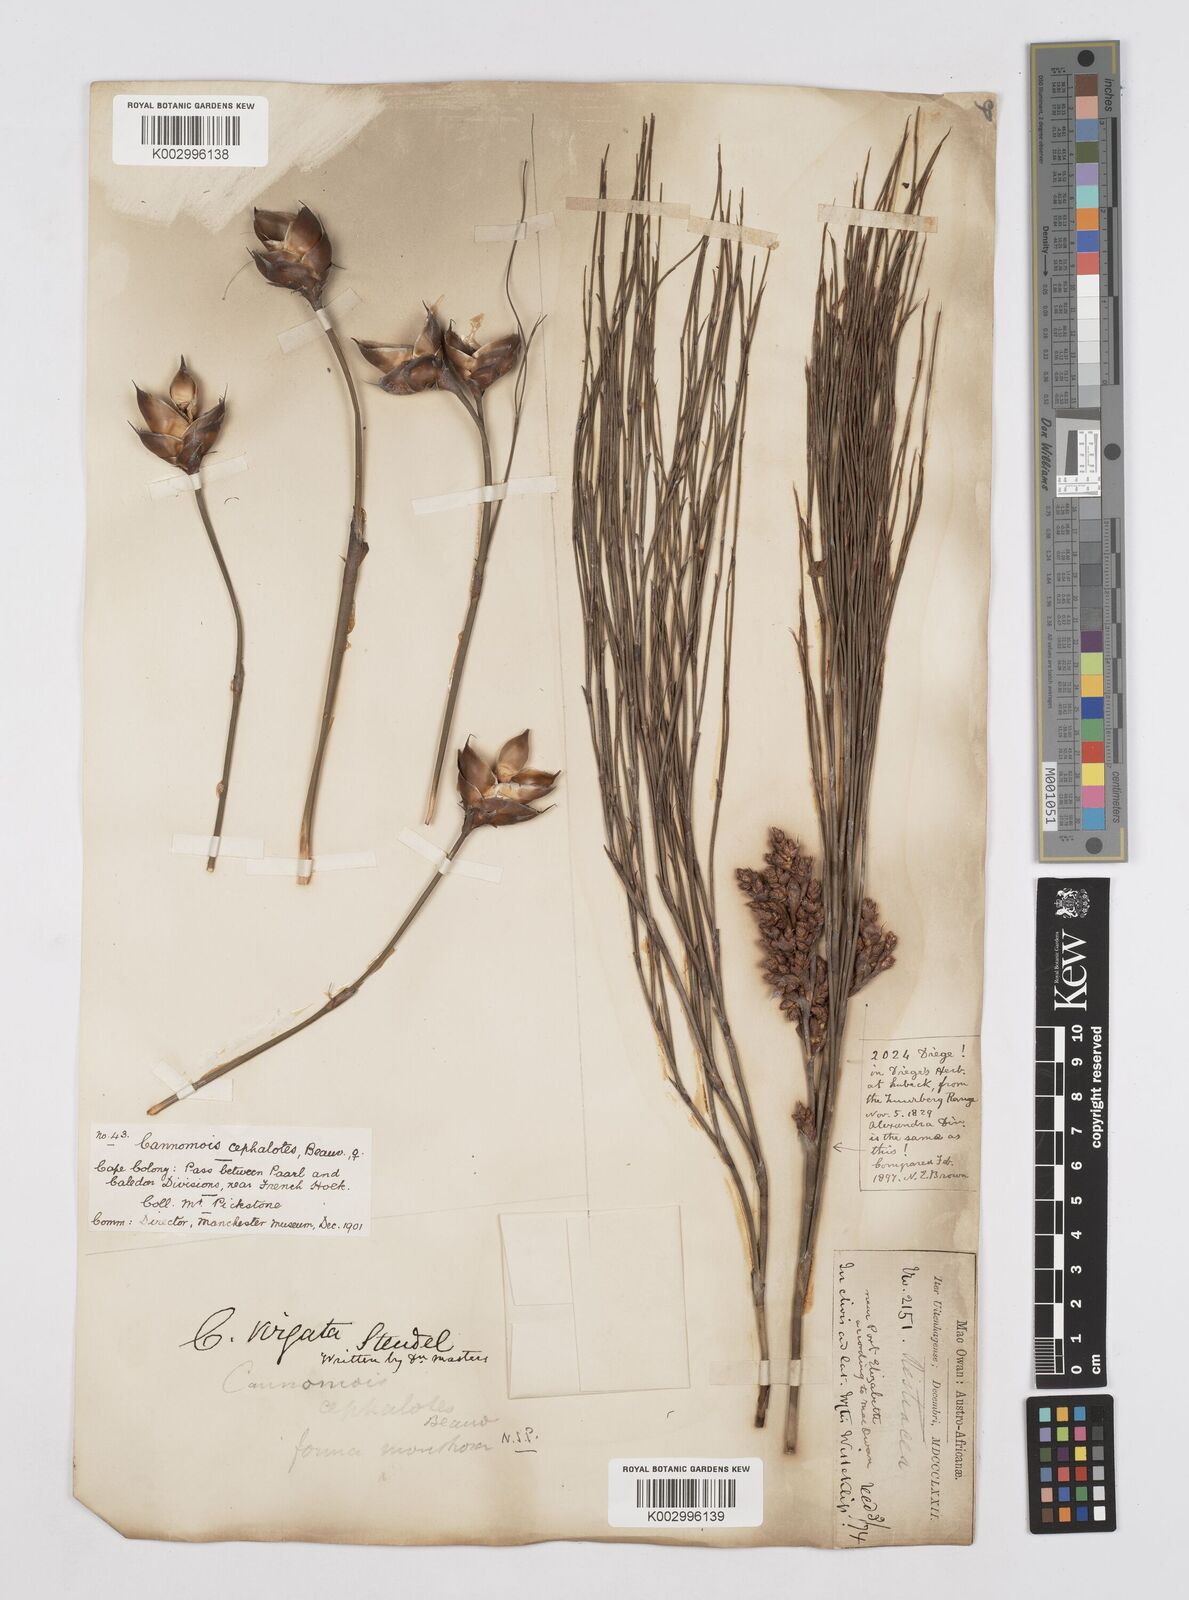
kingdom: Plantae
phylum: Tracheophyta
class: Liliopsida
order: Poales
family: Restionaceae
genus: Cannomois
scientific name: Cannomois virgata
